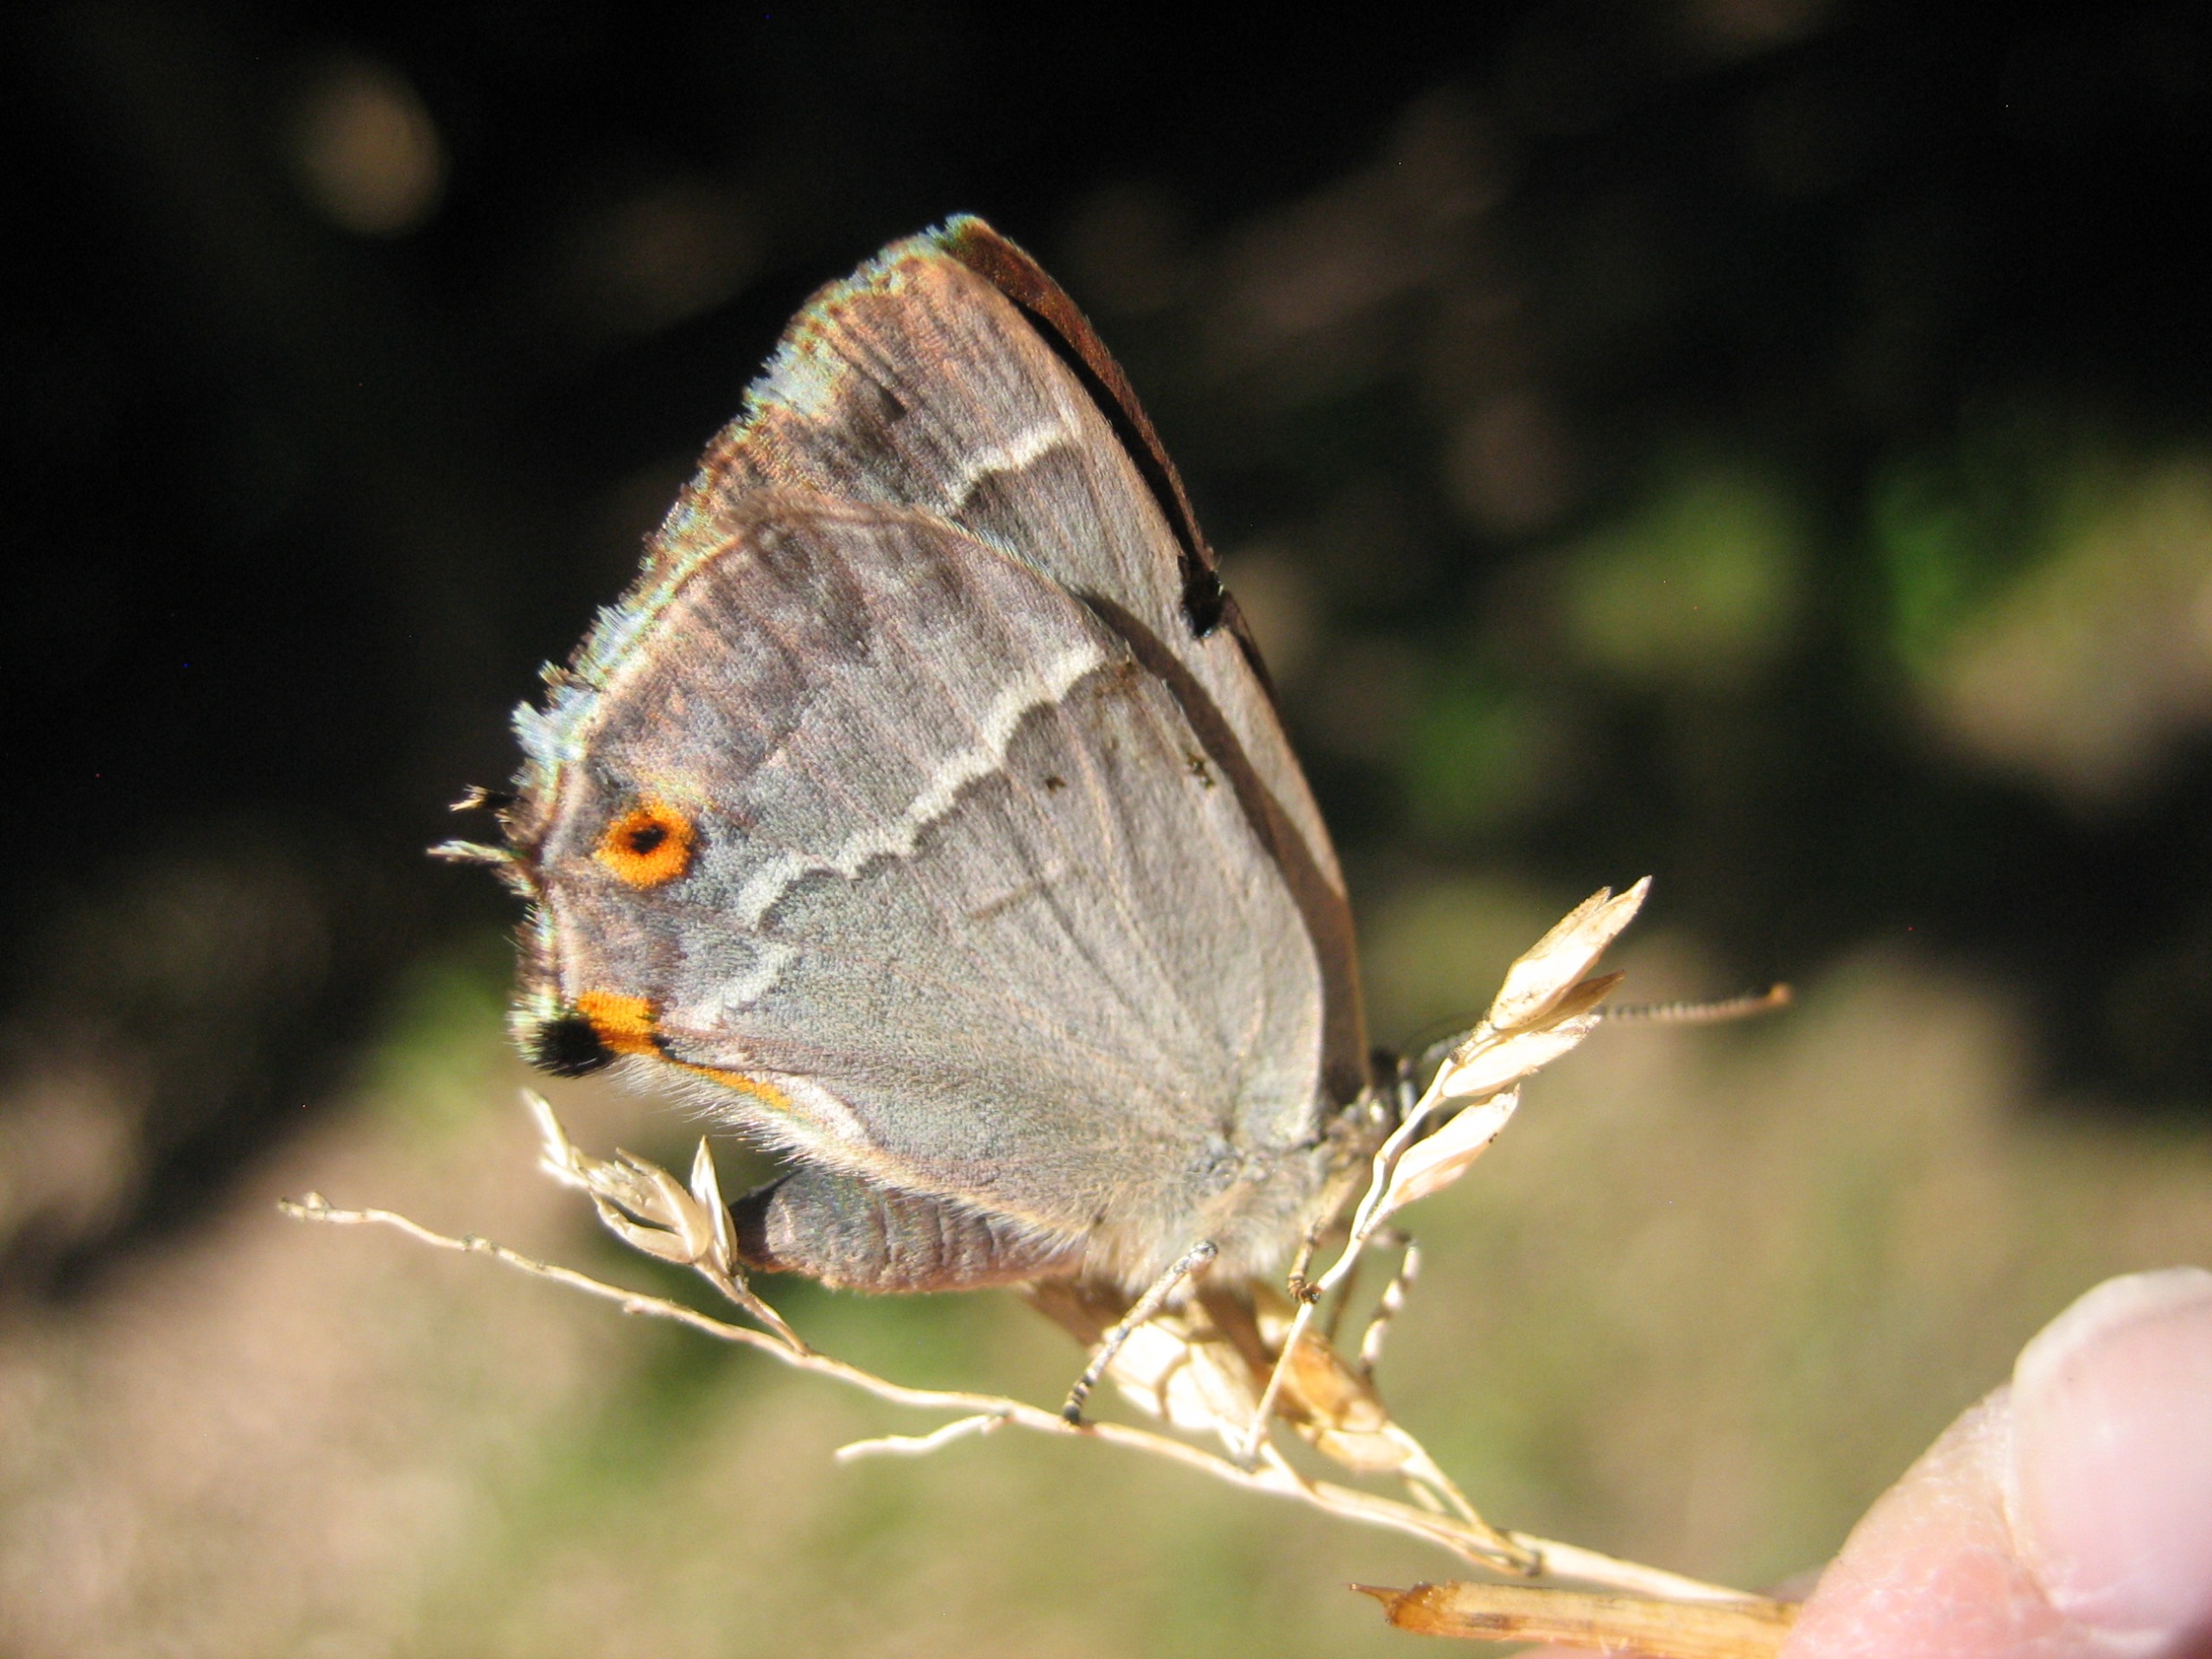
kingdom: Animalia
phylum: Arthropoda
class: Insecta
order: Lepidoptera
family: Lycaenidae
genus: Quercusia
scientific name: Quercusia quercus
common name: Blåhale
